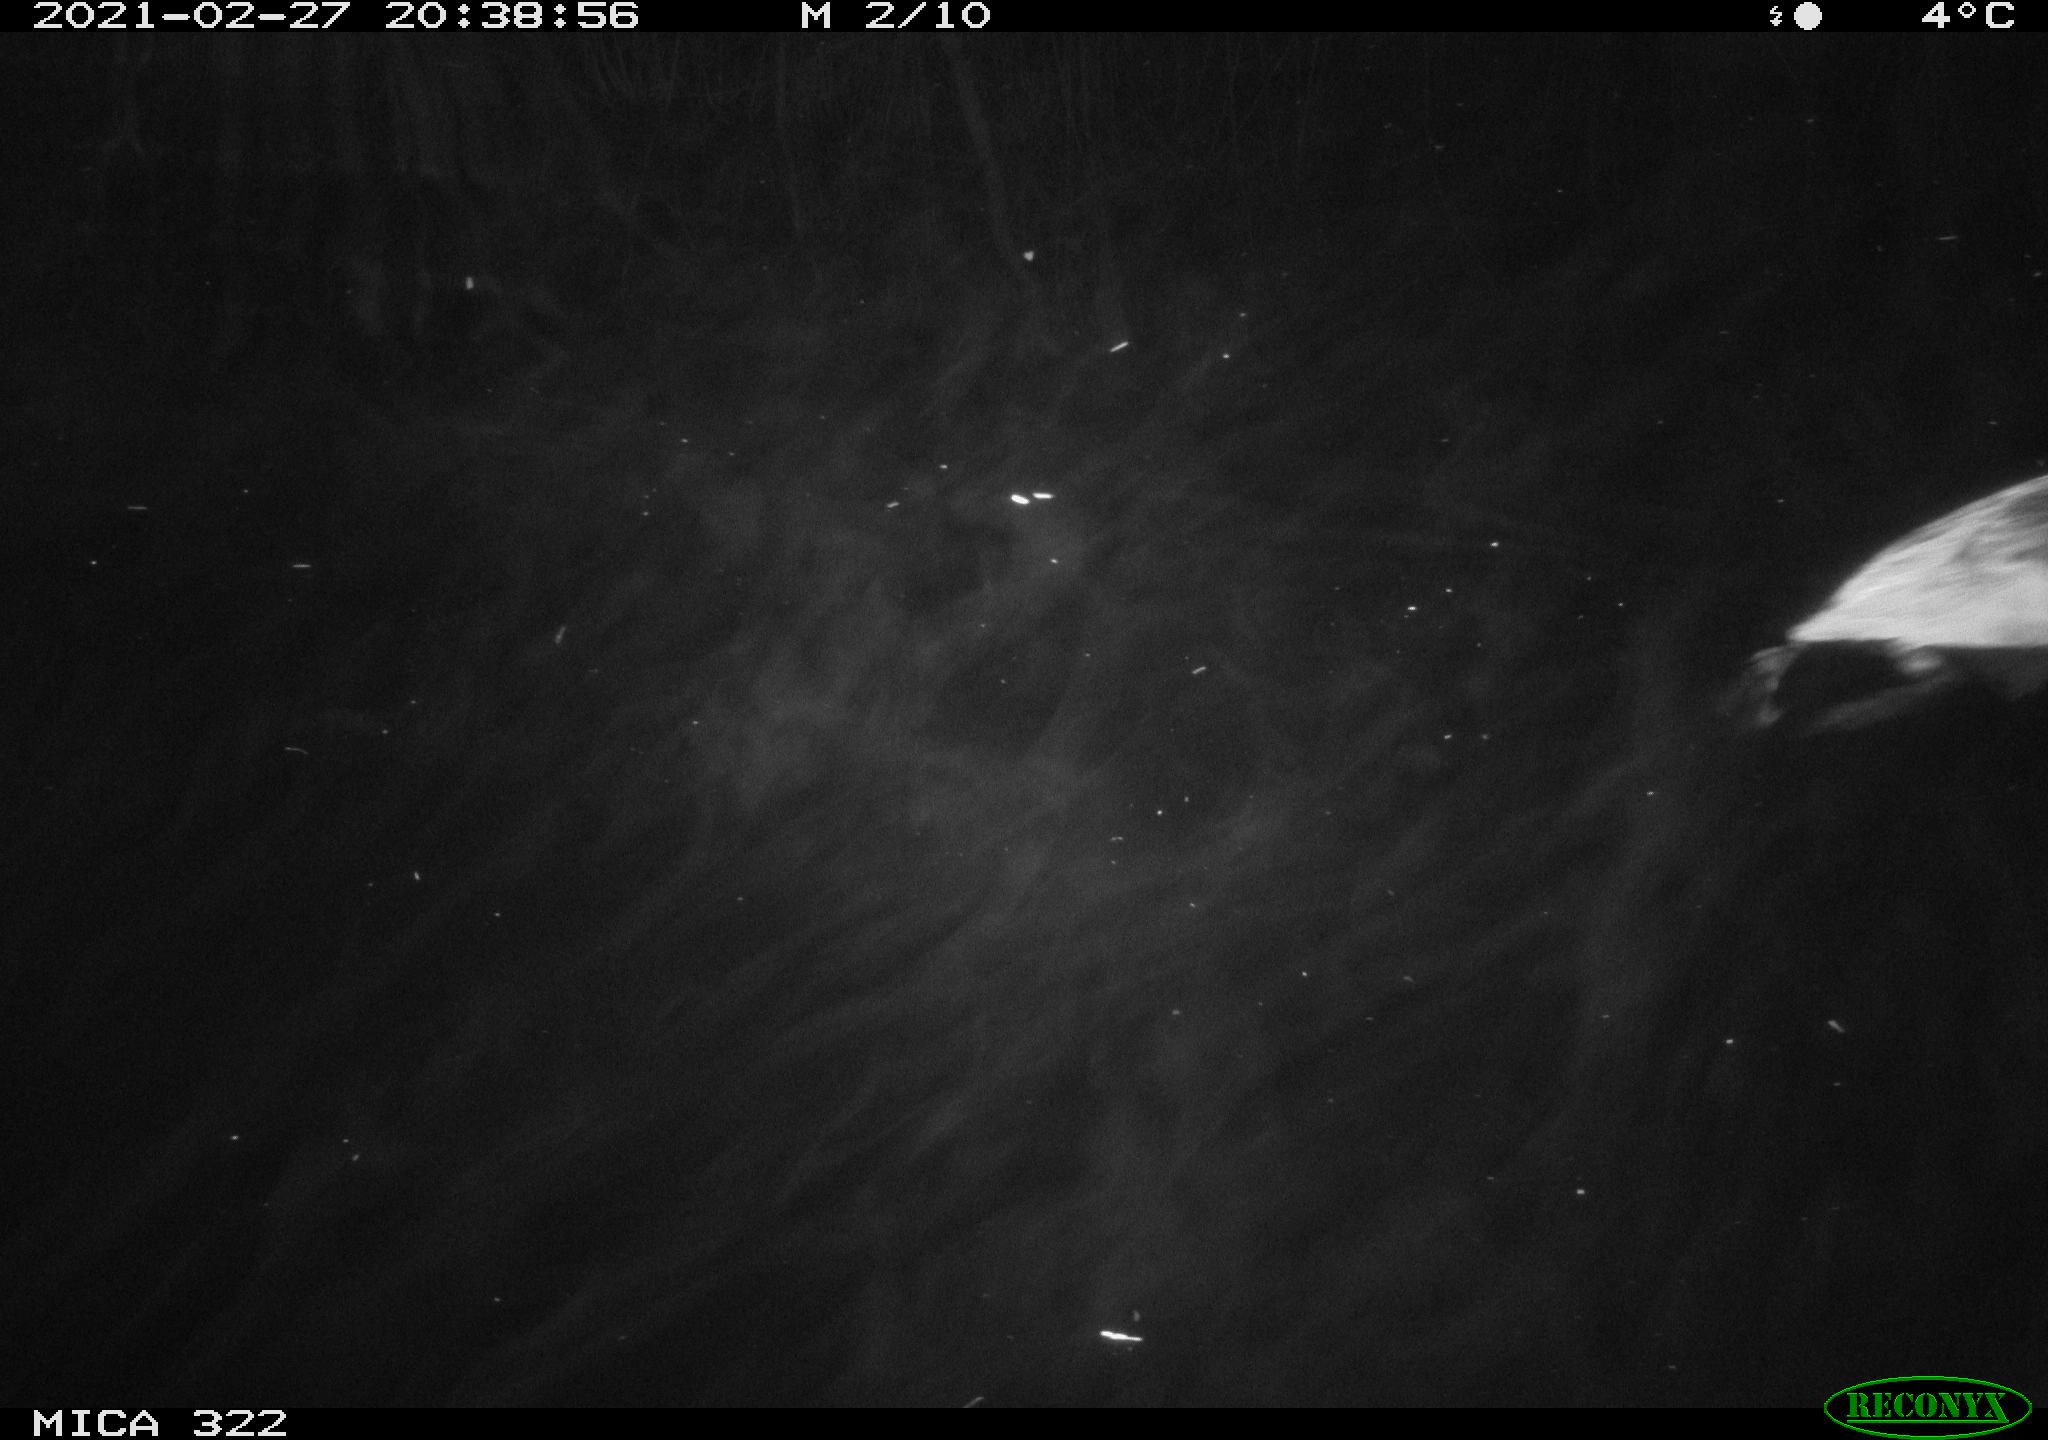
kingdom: Animalia
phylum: Chordata
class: Aves
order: Gruiformes
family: Rallidae
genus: Fulica
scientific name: Fulica atra
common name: Eurasian coot
